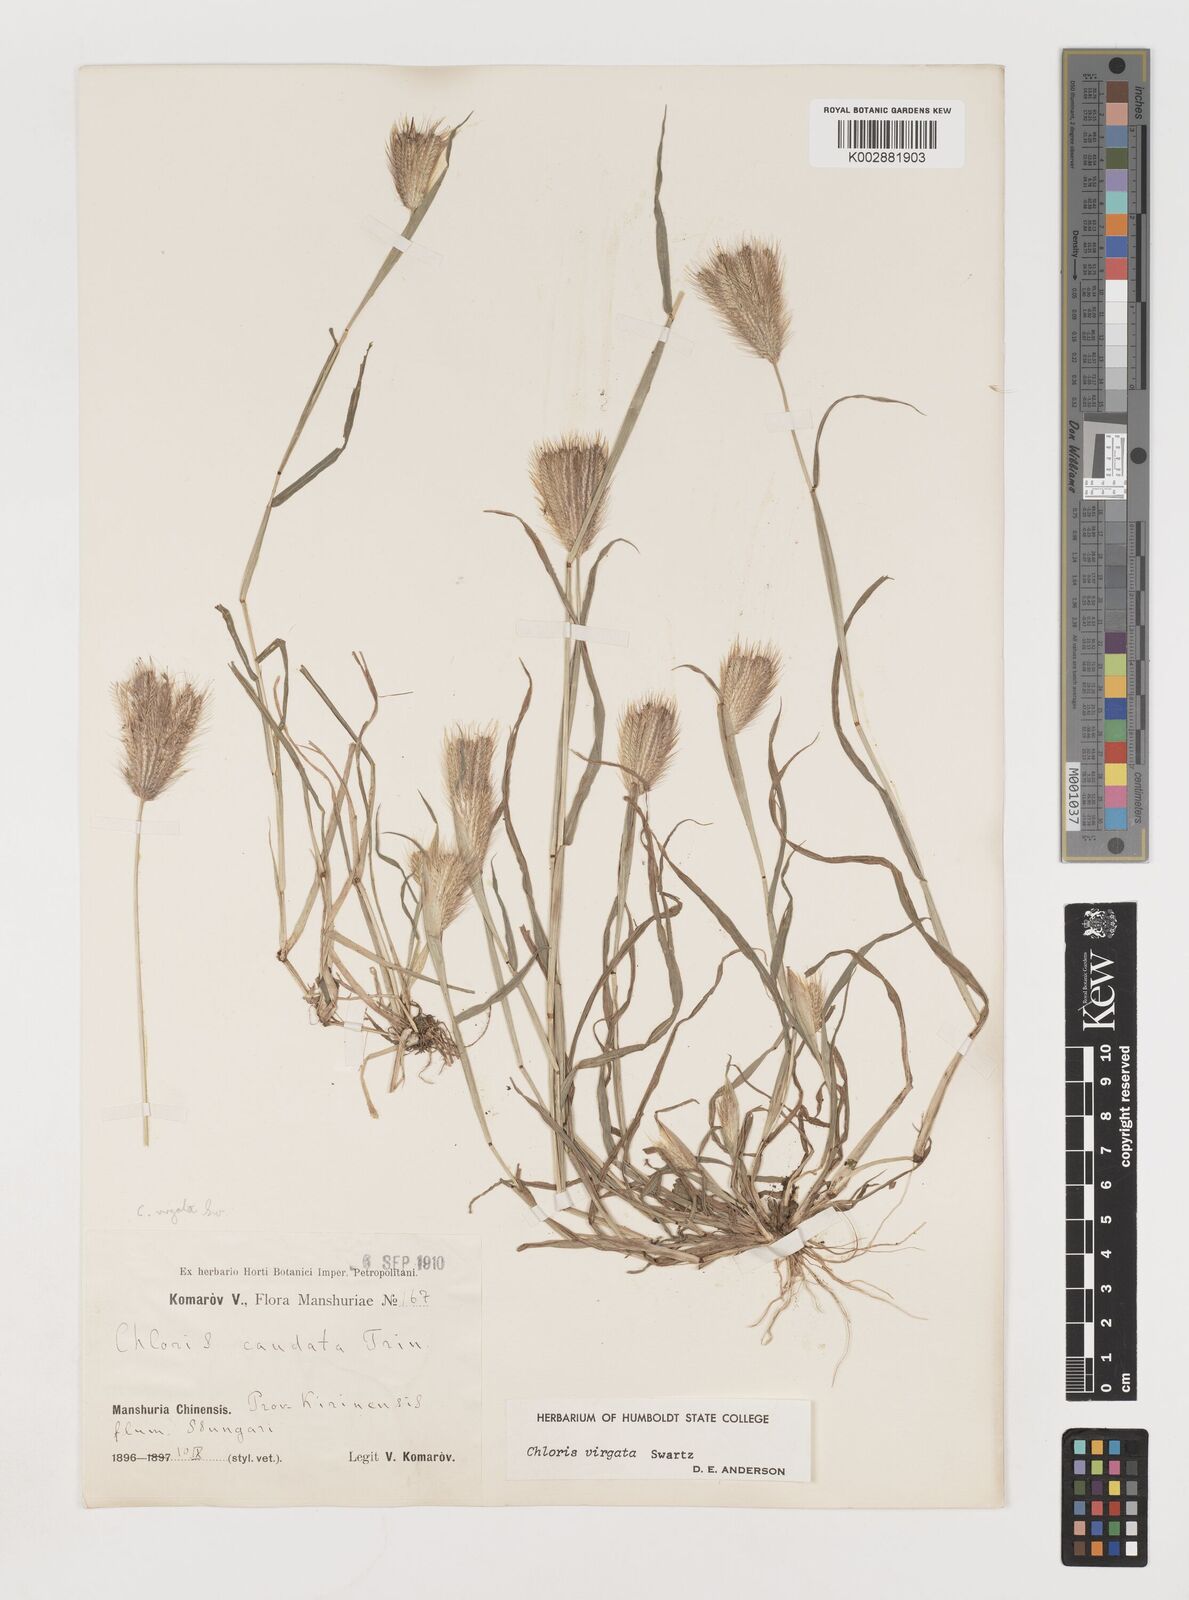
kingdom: Plantae
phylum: Tracheophyta
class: Liliopsida
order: Poales
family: Poaceae
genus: Chloris
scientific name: Chloris virgata
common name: Feathery rhodes-grass
